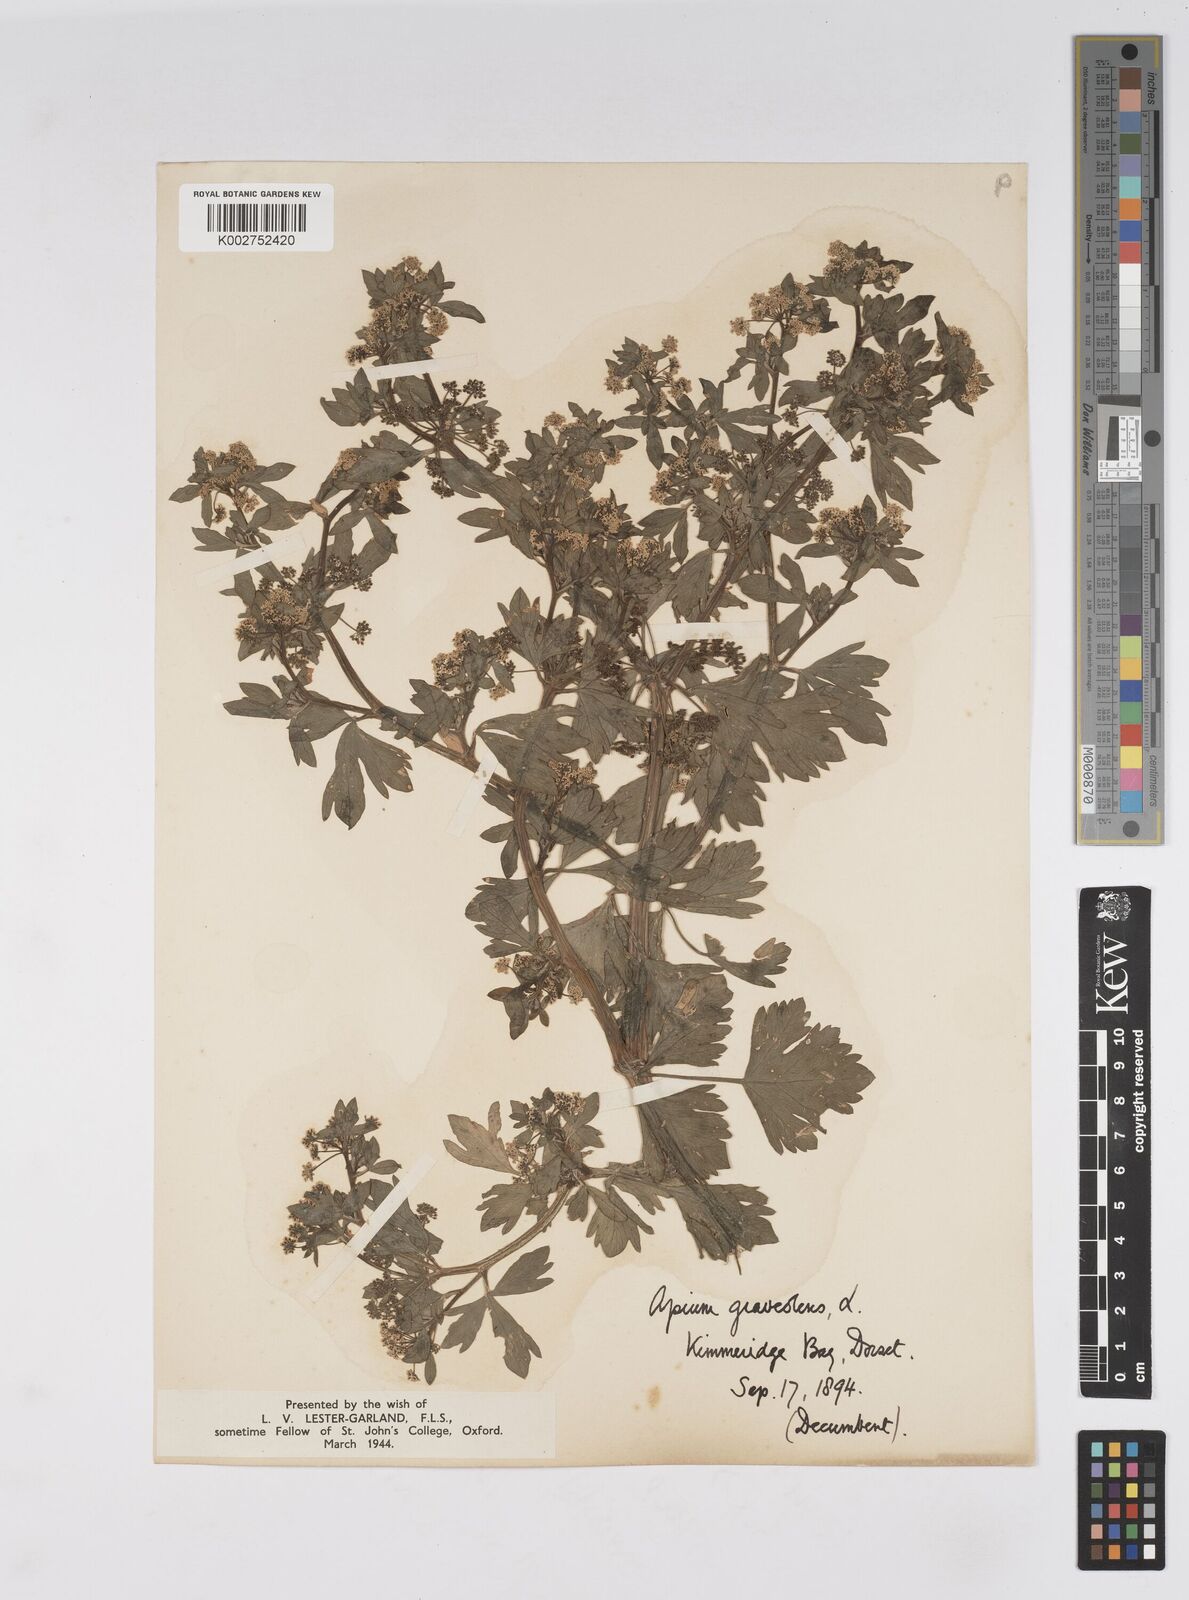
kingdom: Plantae
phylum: Tracheophyta
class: Magnoliopsida
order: Apiales
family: Apiaceae
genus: Apium
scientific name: Apium graveolens
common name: Wild celery
